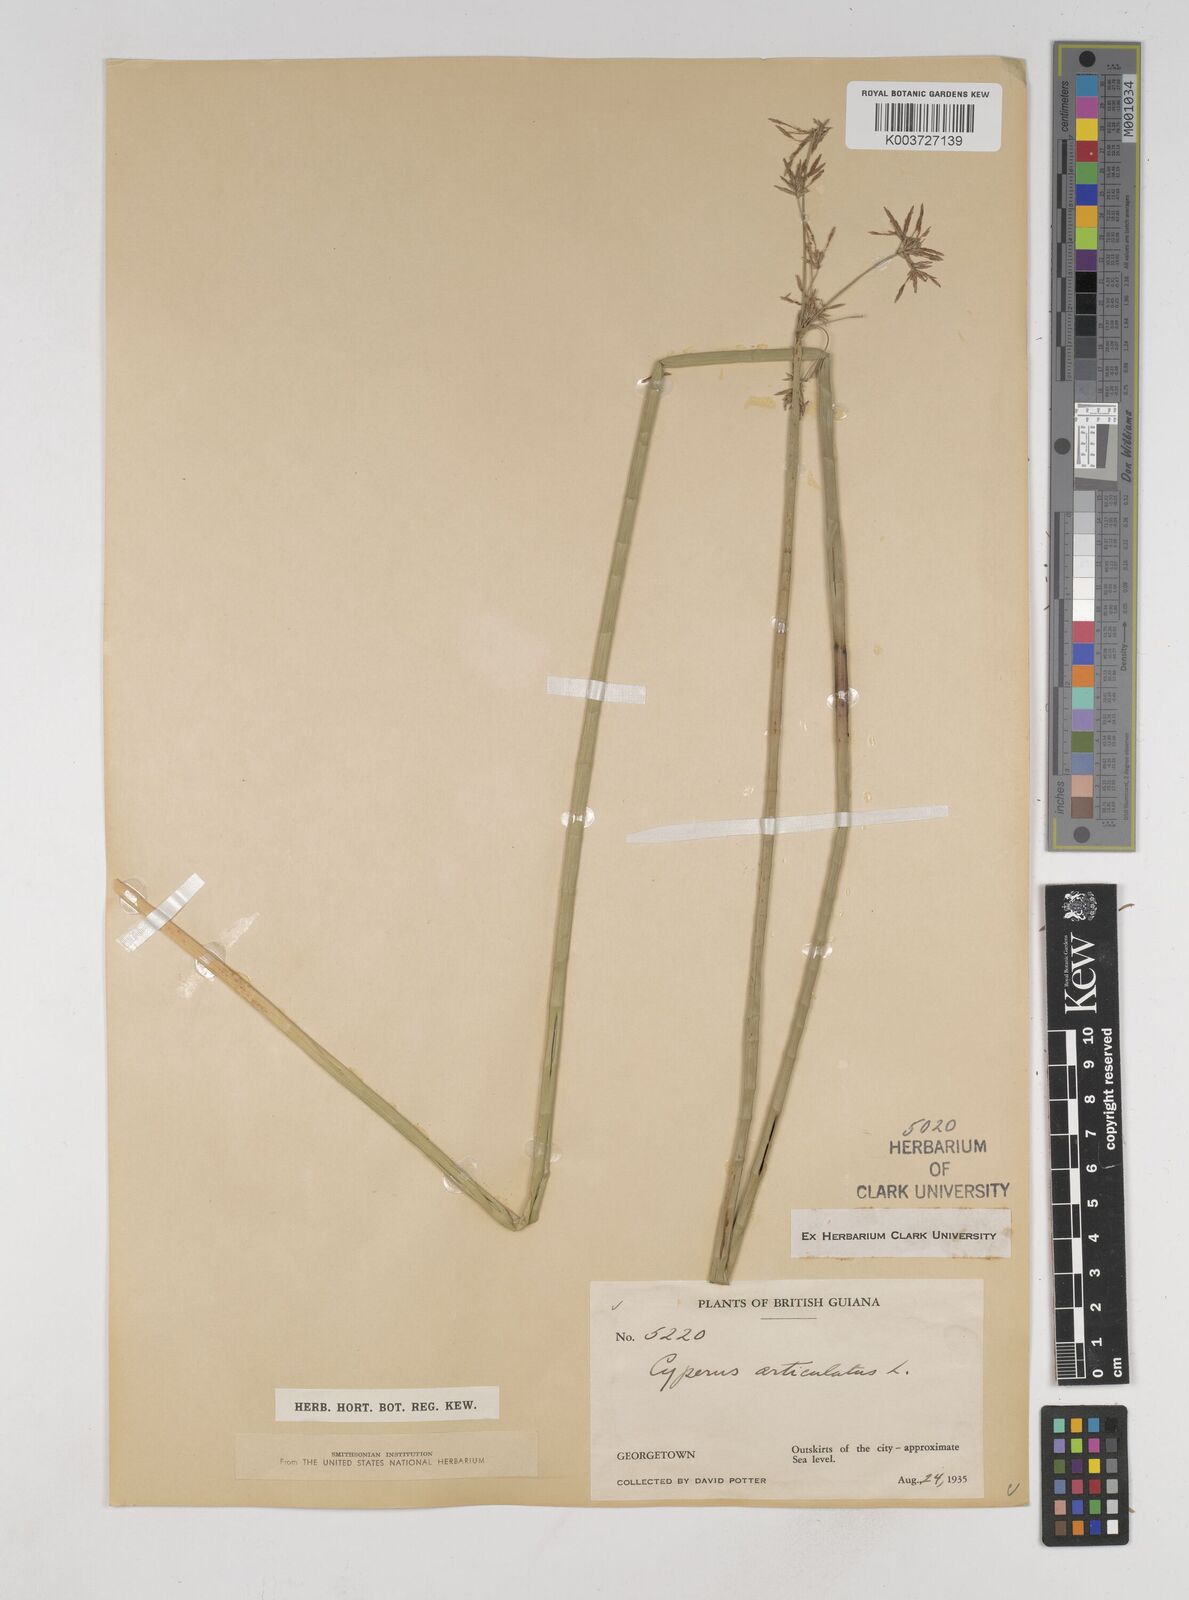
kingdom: Plantae
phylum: Tracheophyta
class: Liliopsida
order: Poales
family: Cyperaceae
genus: Cyperus
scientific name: Cyperus articulatus
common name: Jointed flatsedge
